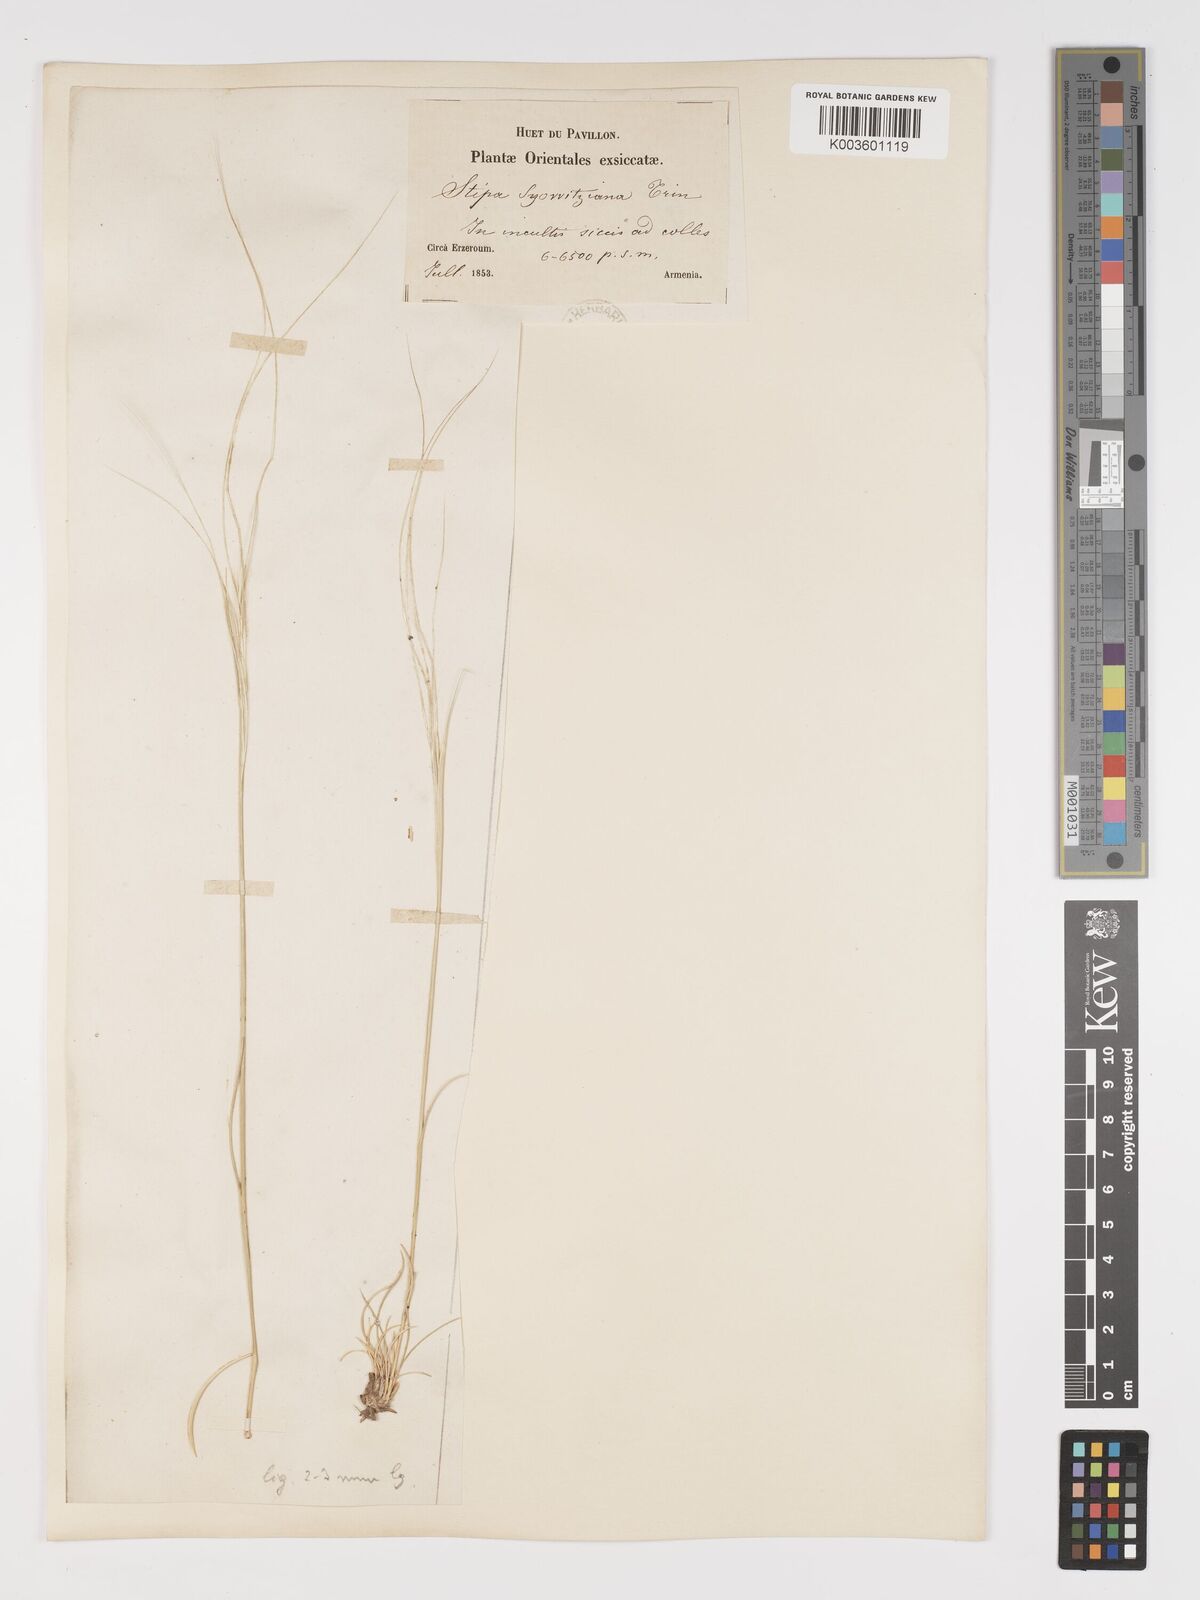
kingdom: Plantae
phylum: Tracheophyta
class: Liliopsida
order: Poales
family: Poaceae
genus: Stipa
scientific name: Stipa arabica
